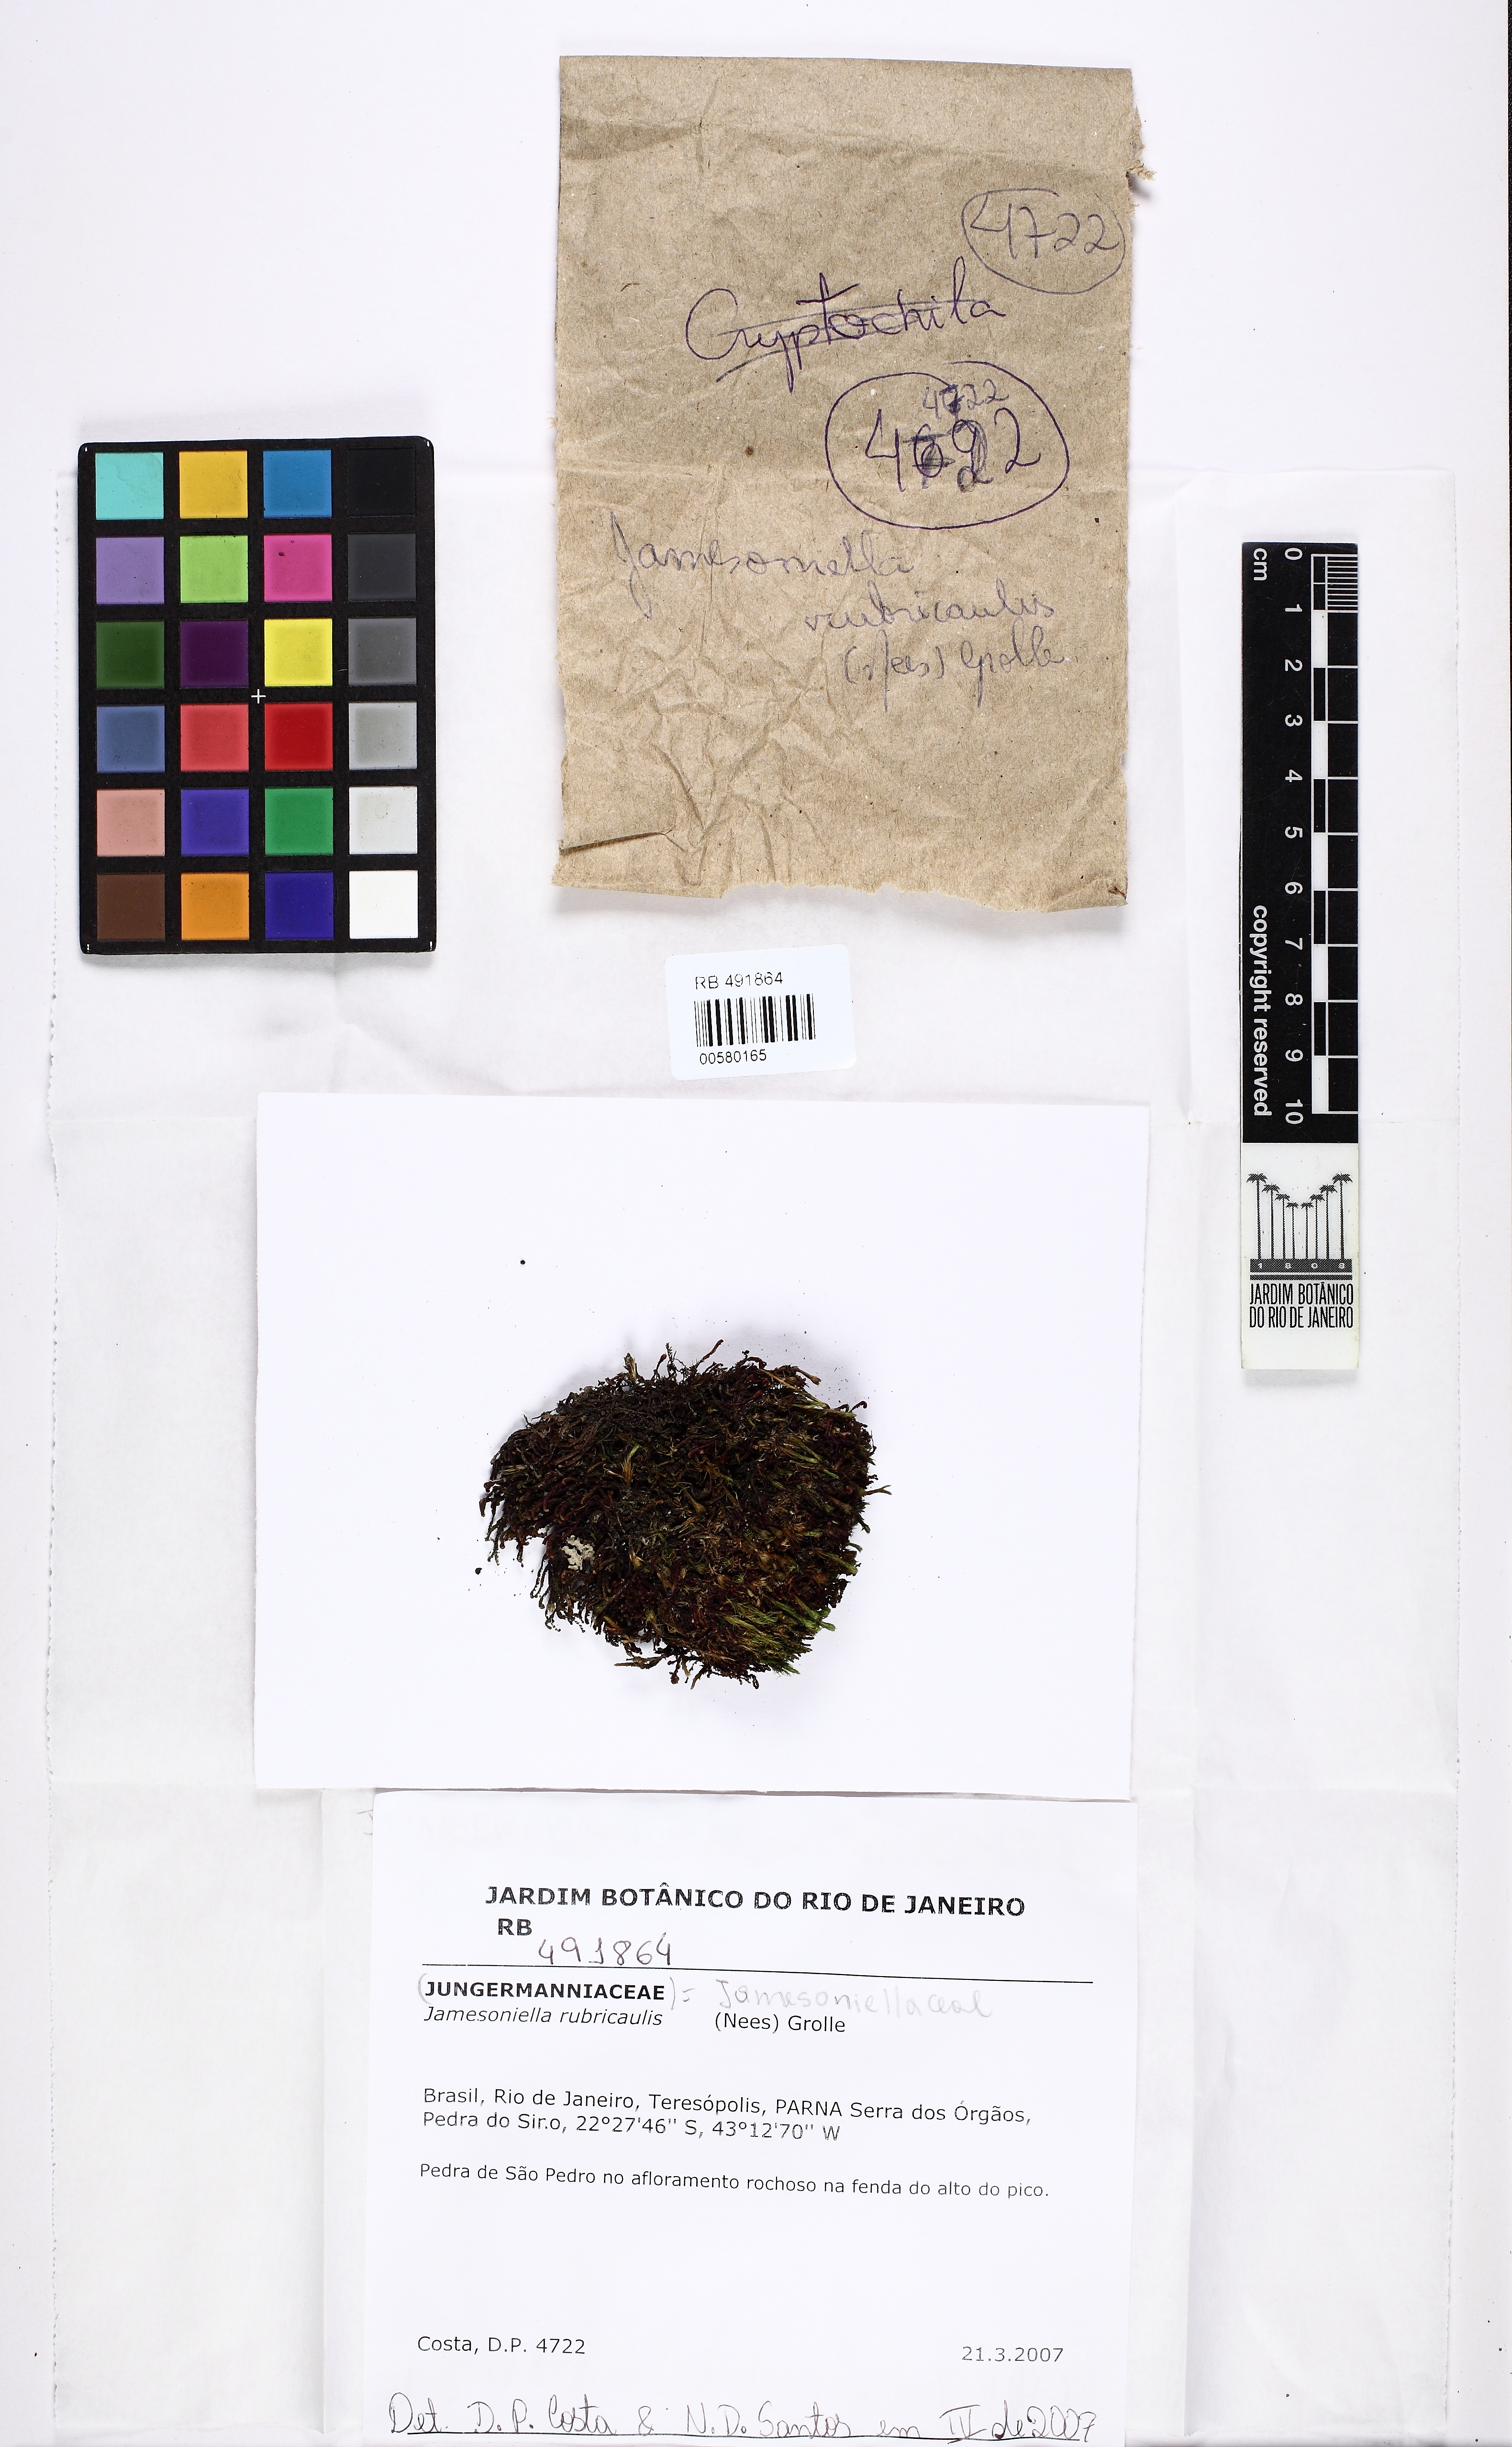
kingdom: Plantae
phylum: Marchantiophyta
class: Jungermanniopsida
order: Jungermanniales
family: Adelanthaceae
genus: Syzygiella
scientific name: Syzygiella rubricaulis
